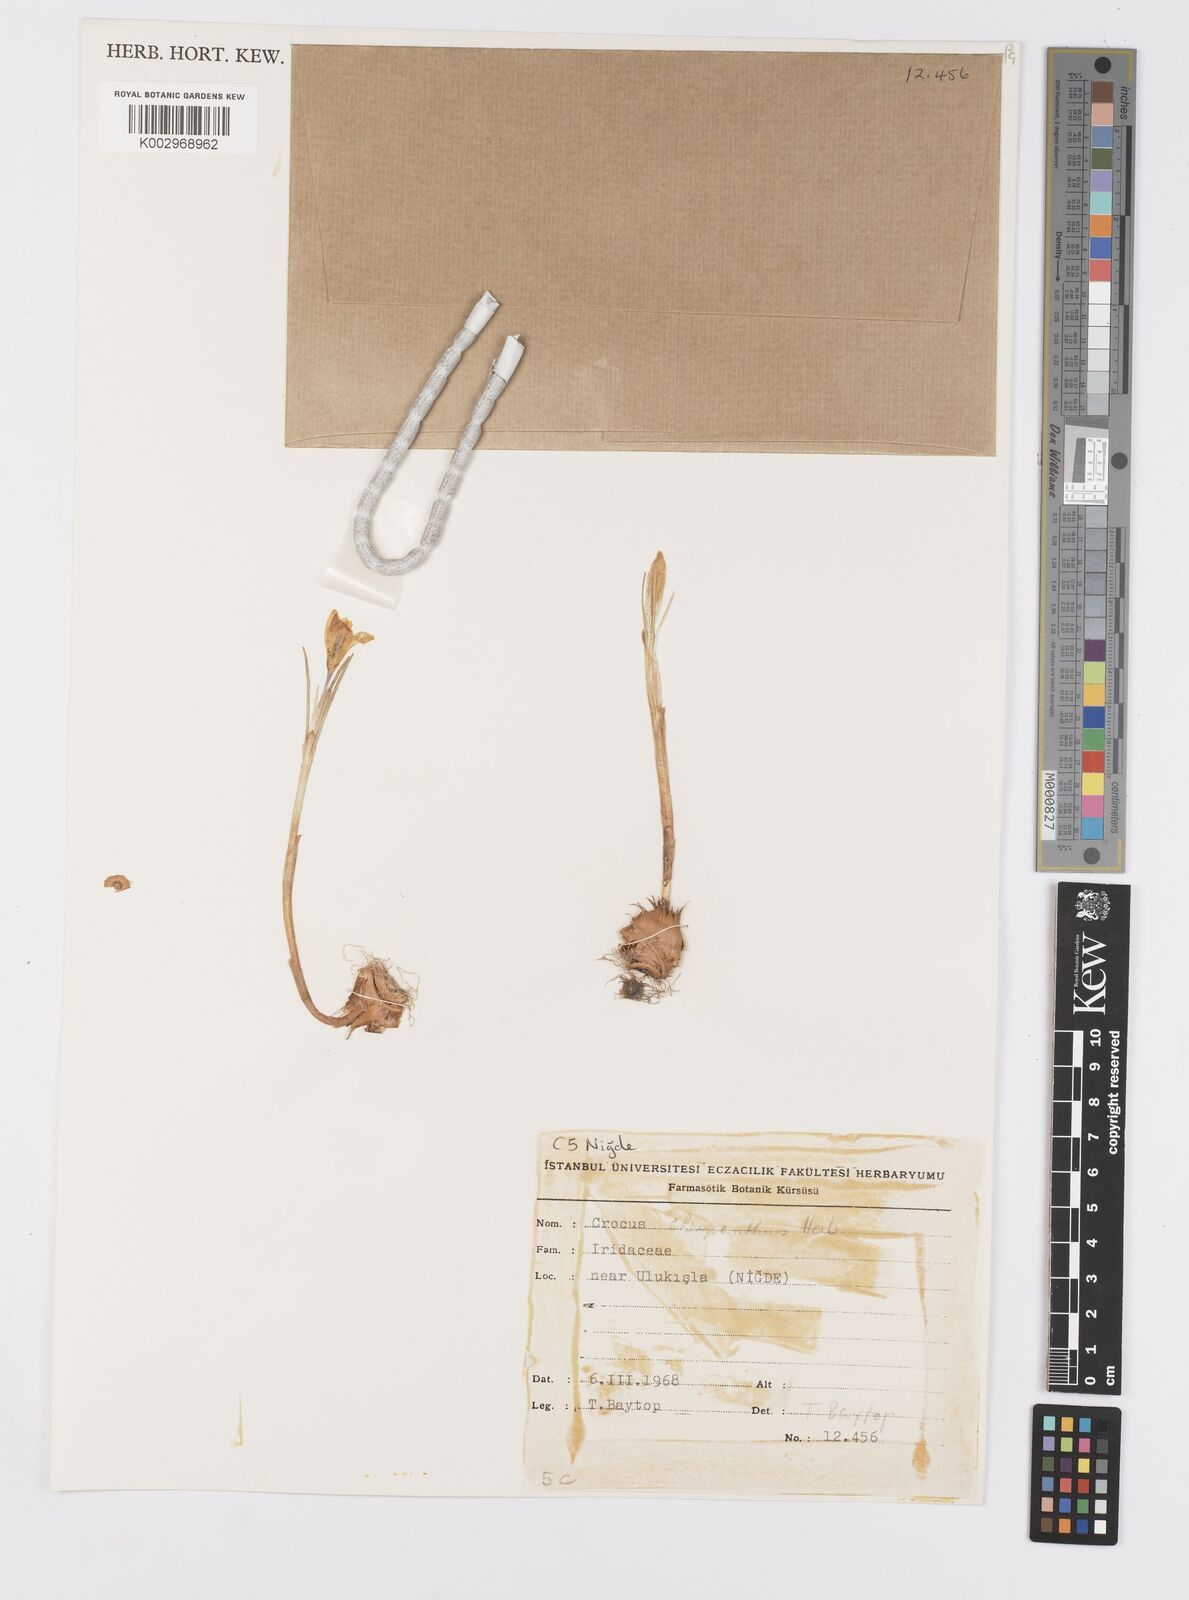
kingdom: Plantae
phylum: Tracheophyta
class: Liliopsida
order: Asparagales
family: Iridaceae
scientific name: Iridaceae
